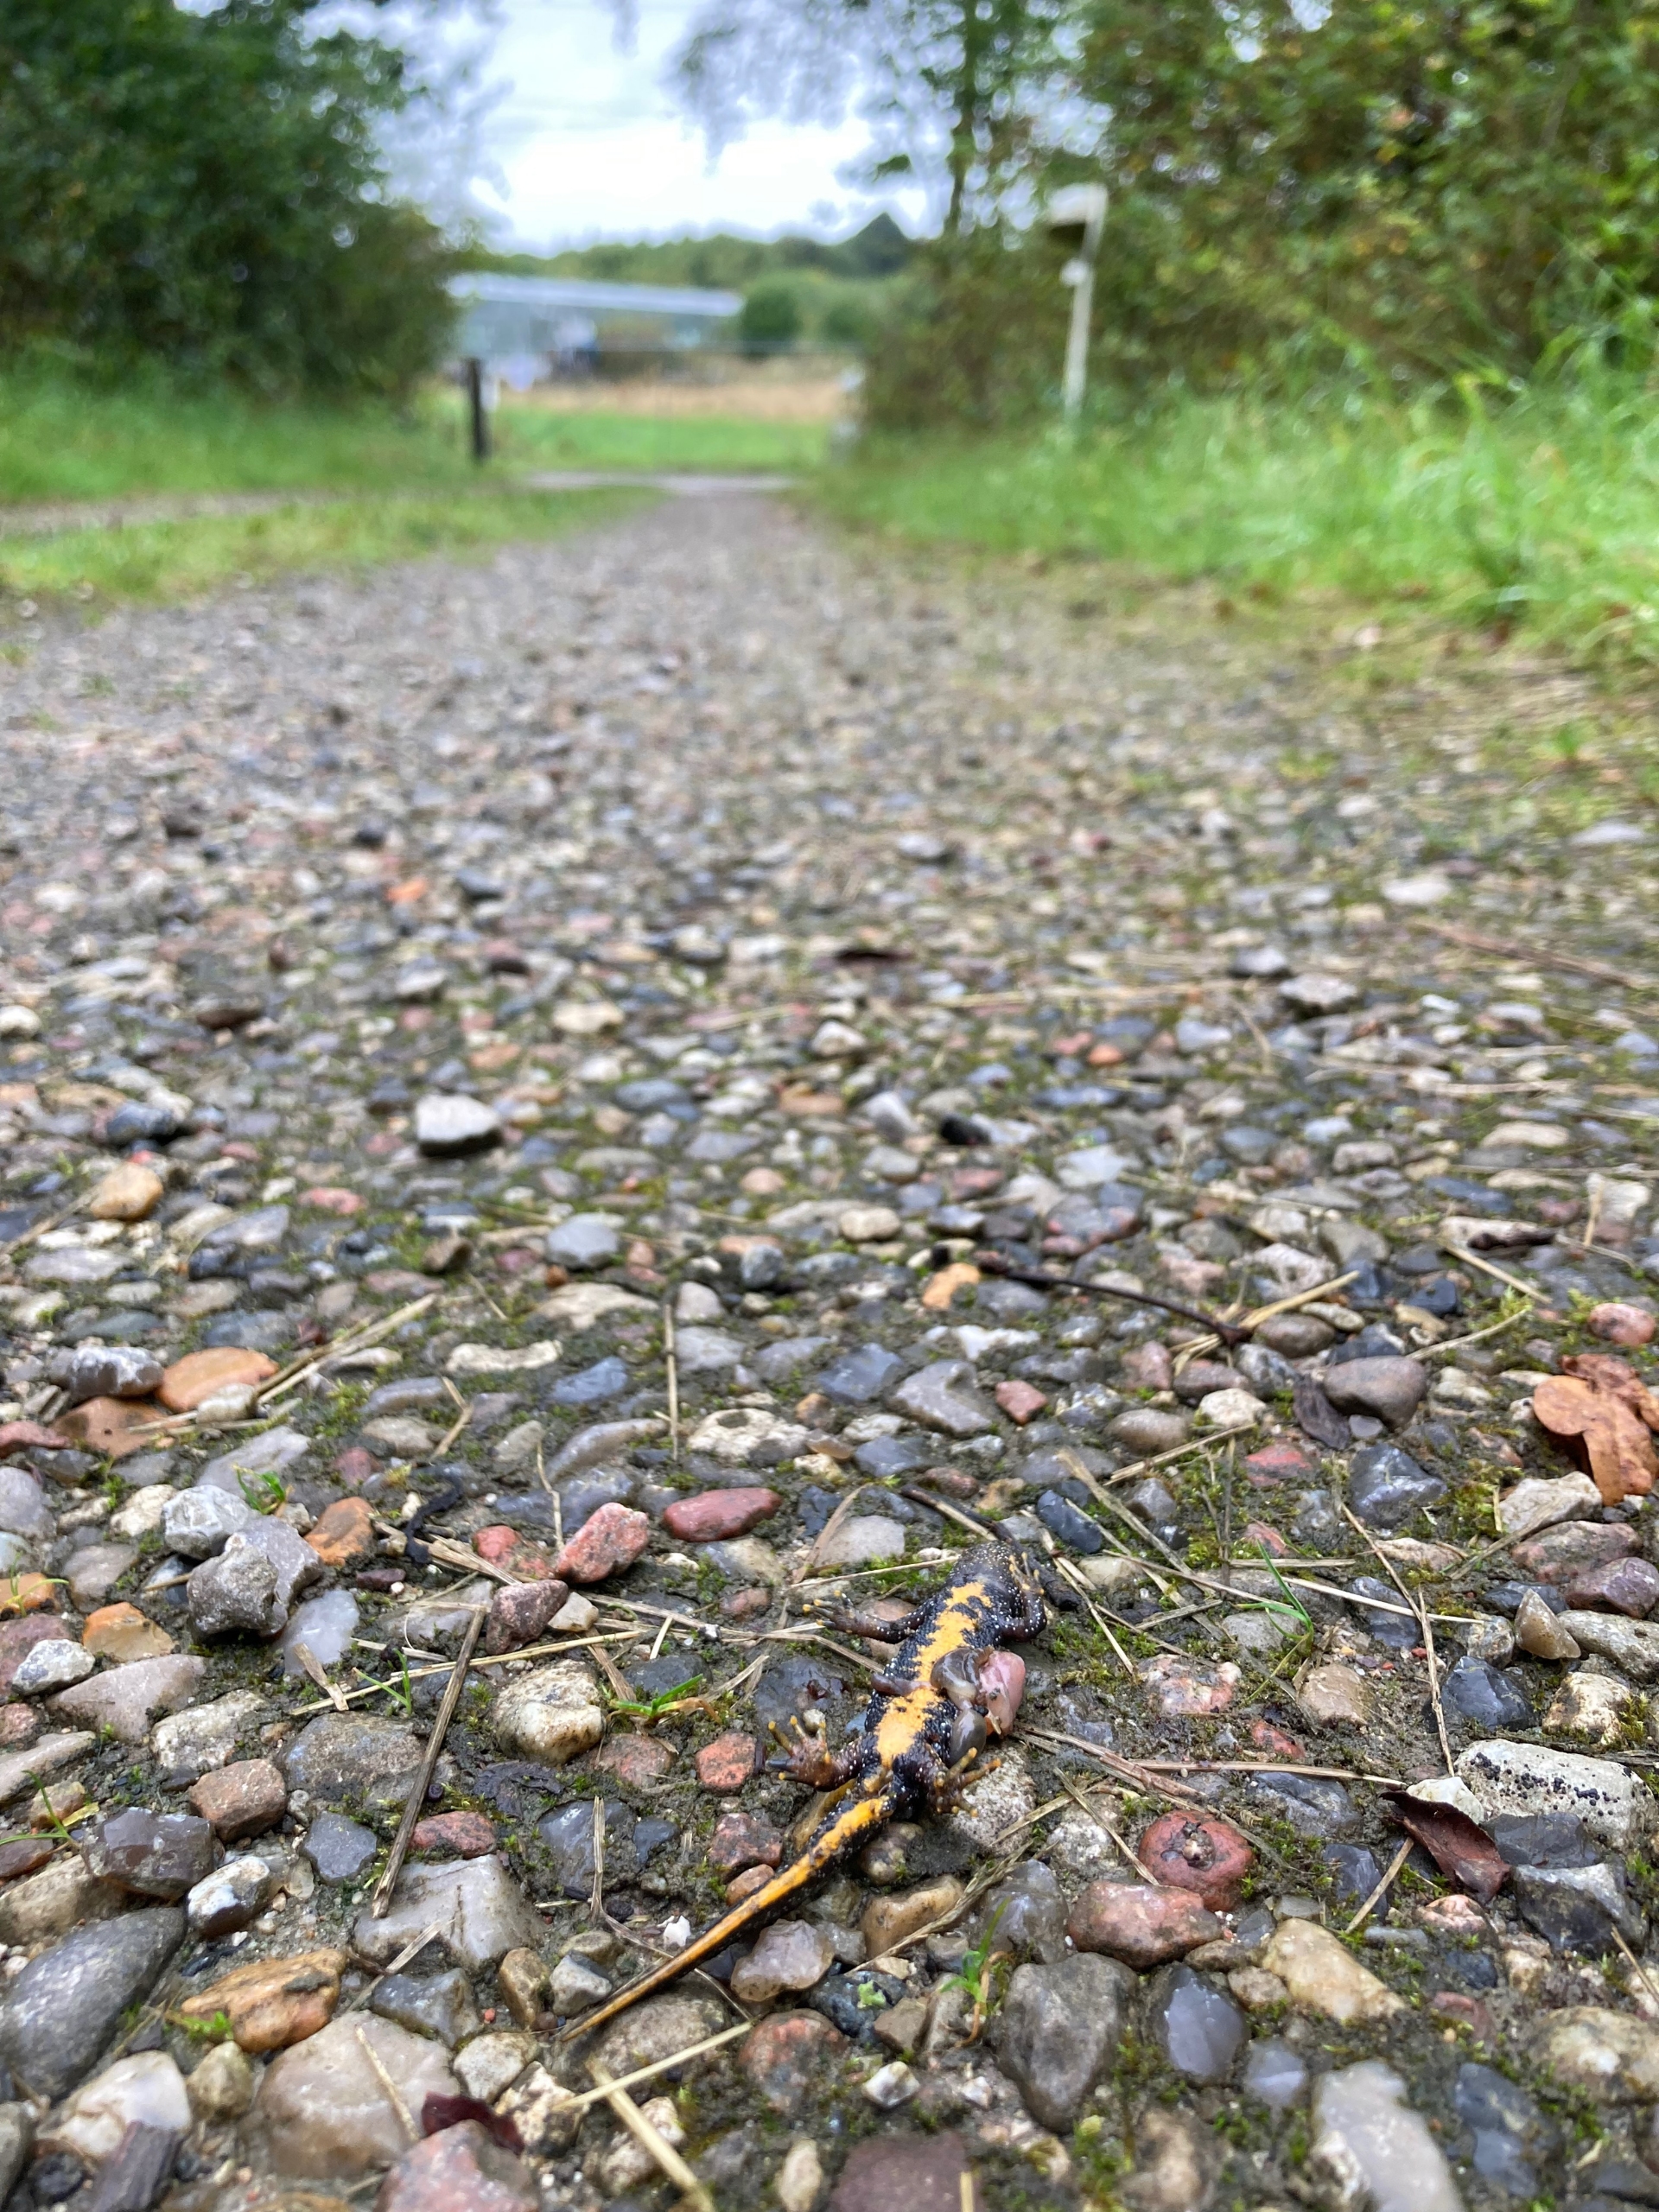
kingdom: Animalia
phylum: Chordata
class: Amphibia
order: Caudata
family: Salamandridae
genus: Triturus
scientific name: Triturus cristatus
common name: Stor vandsalamander
